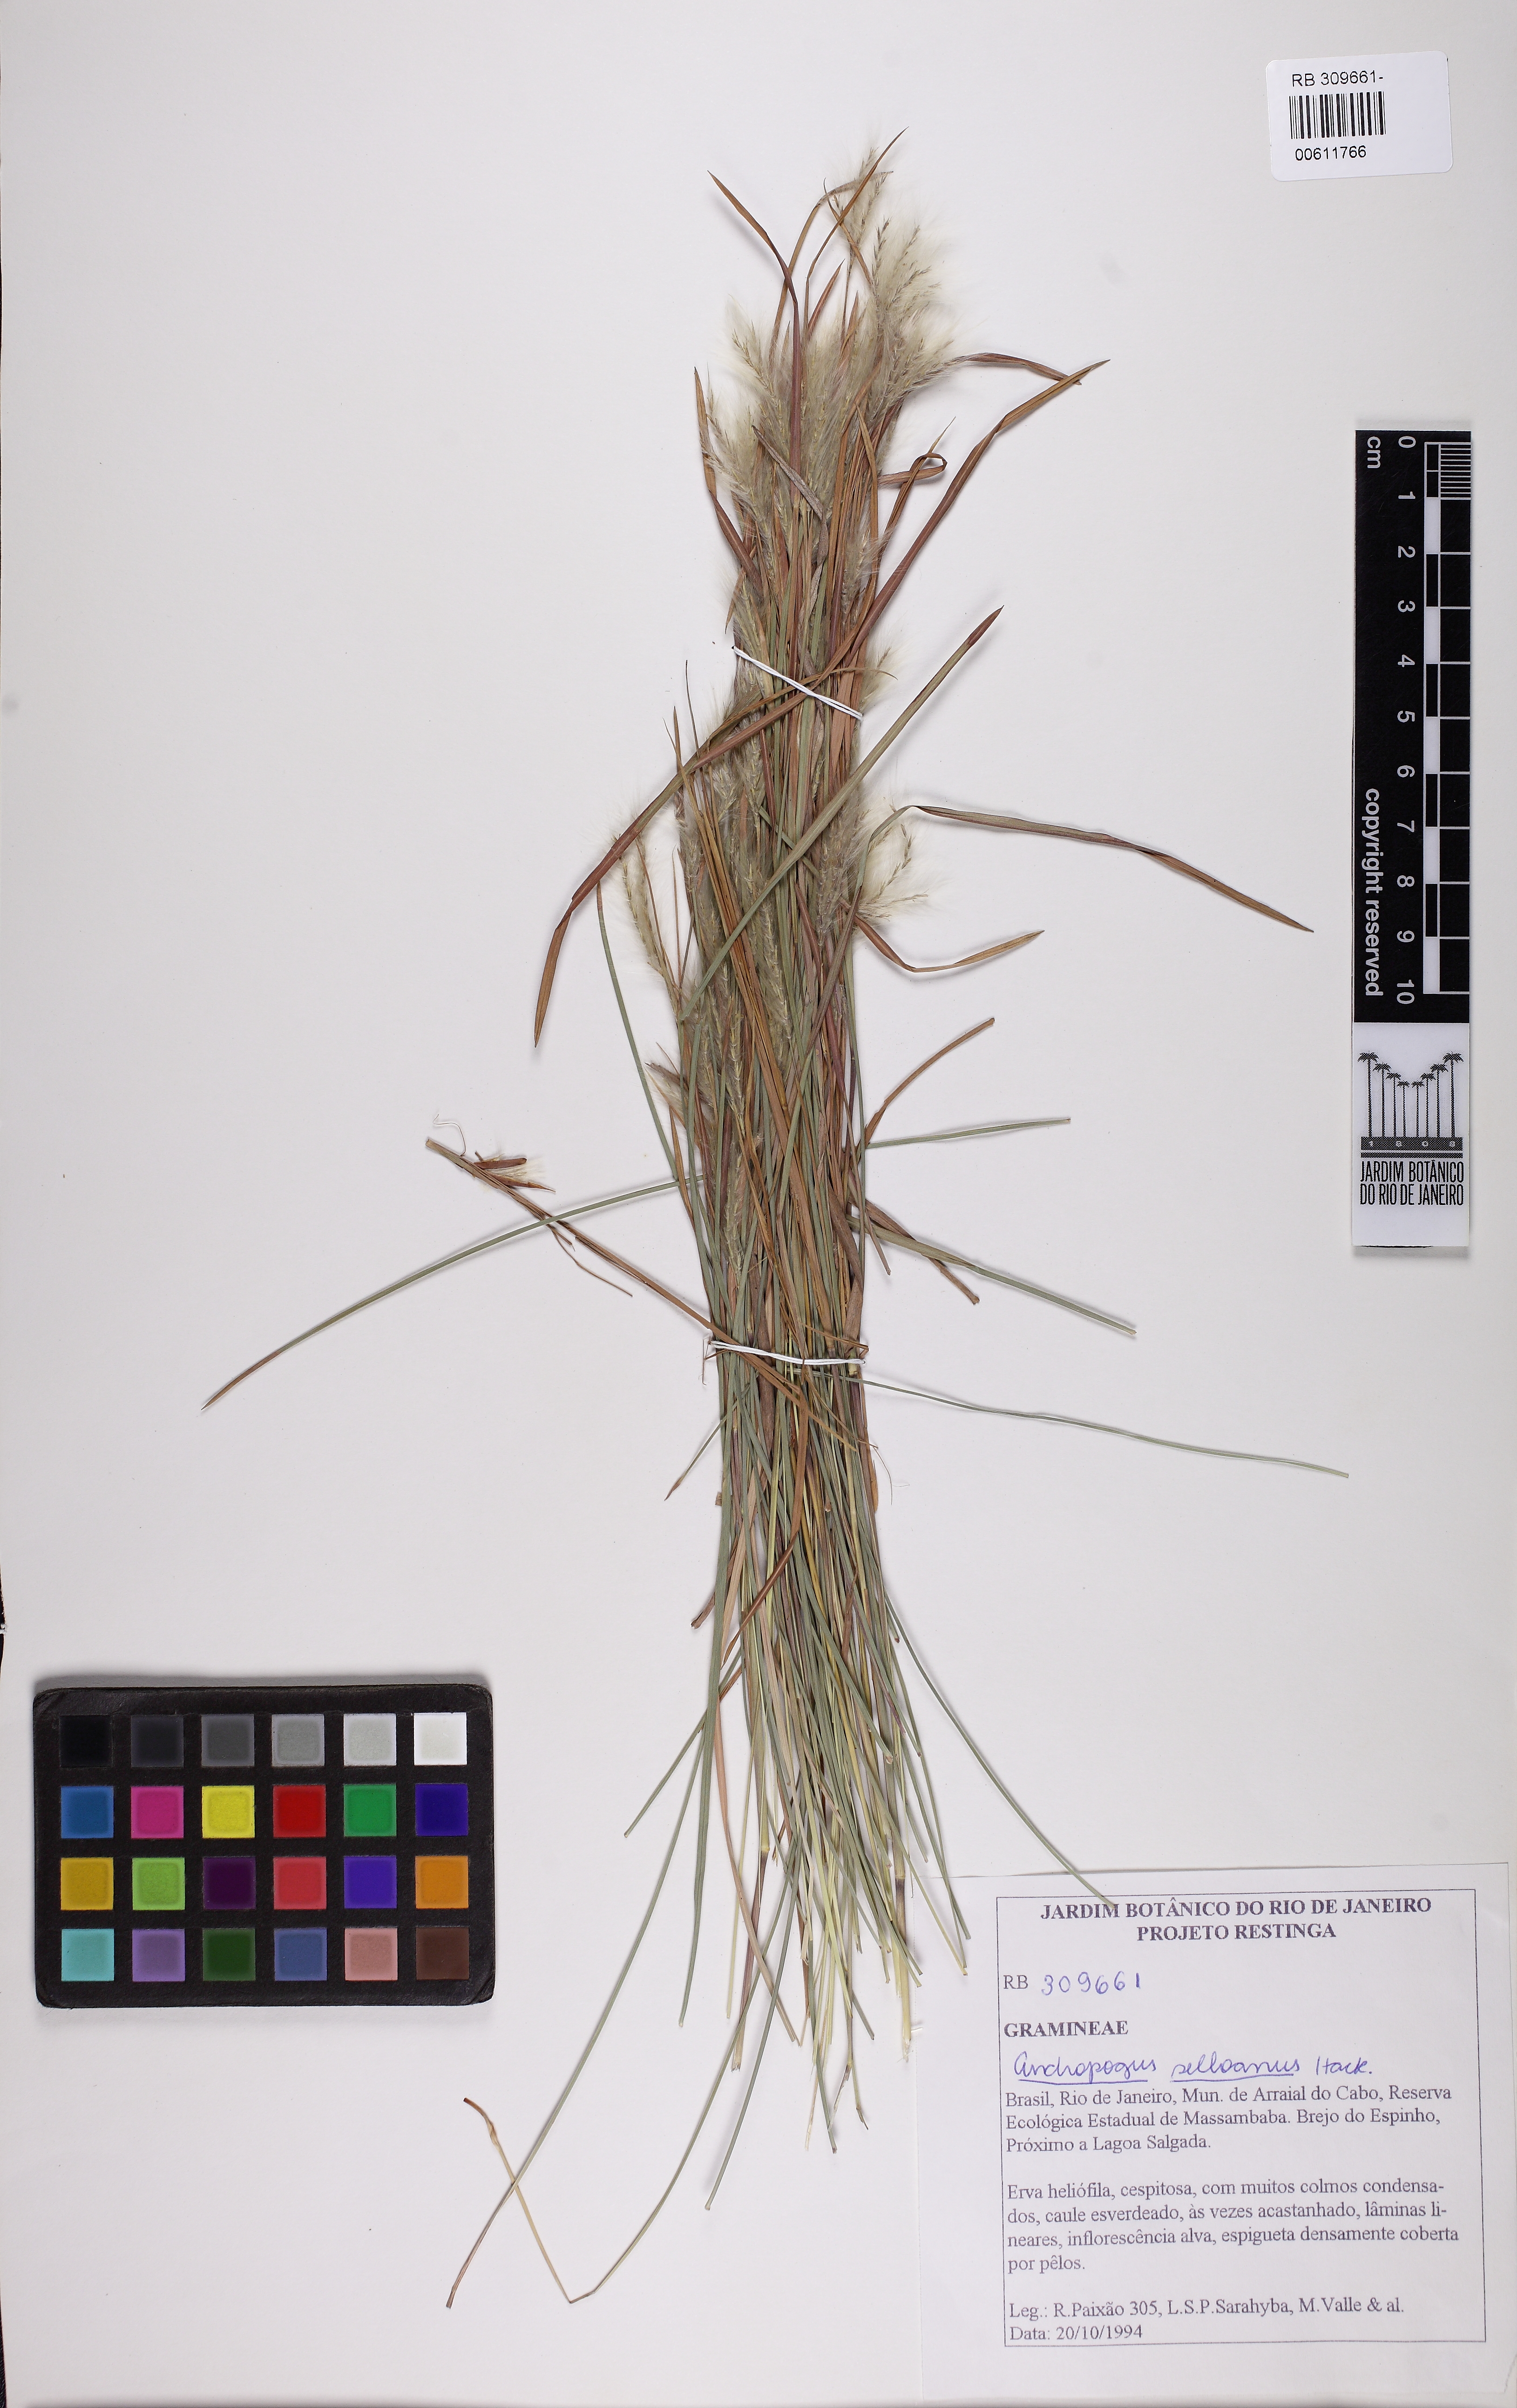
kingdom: Plantae
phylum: Tracheophyta
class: Liliopsida
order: Poales
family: Poaceae
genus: Andropogon
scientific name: Andropogon selloanus
